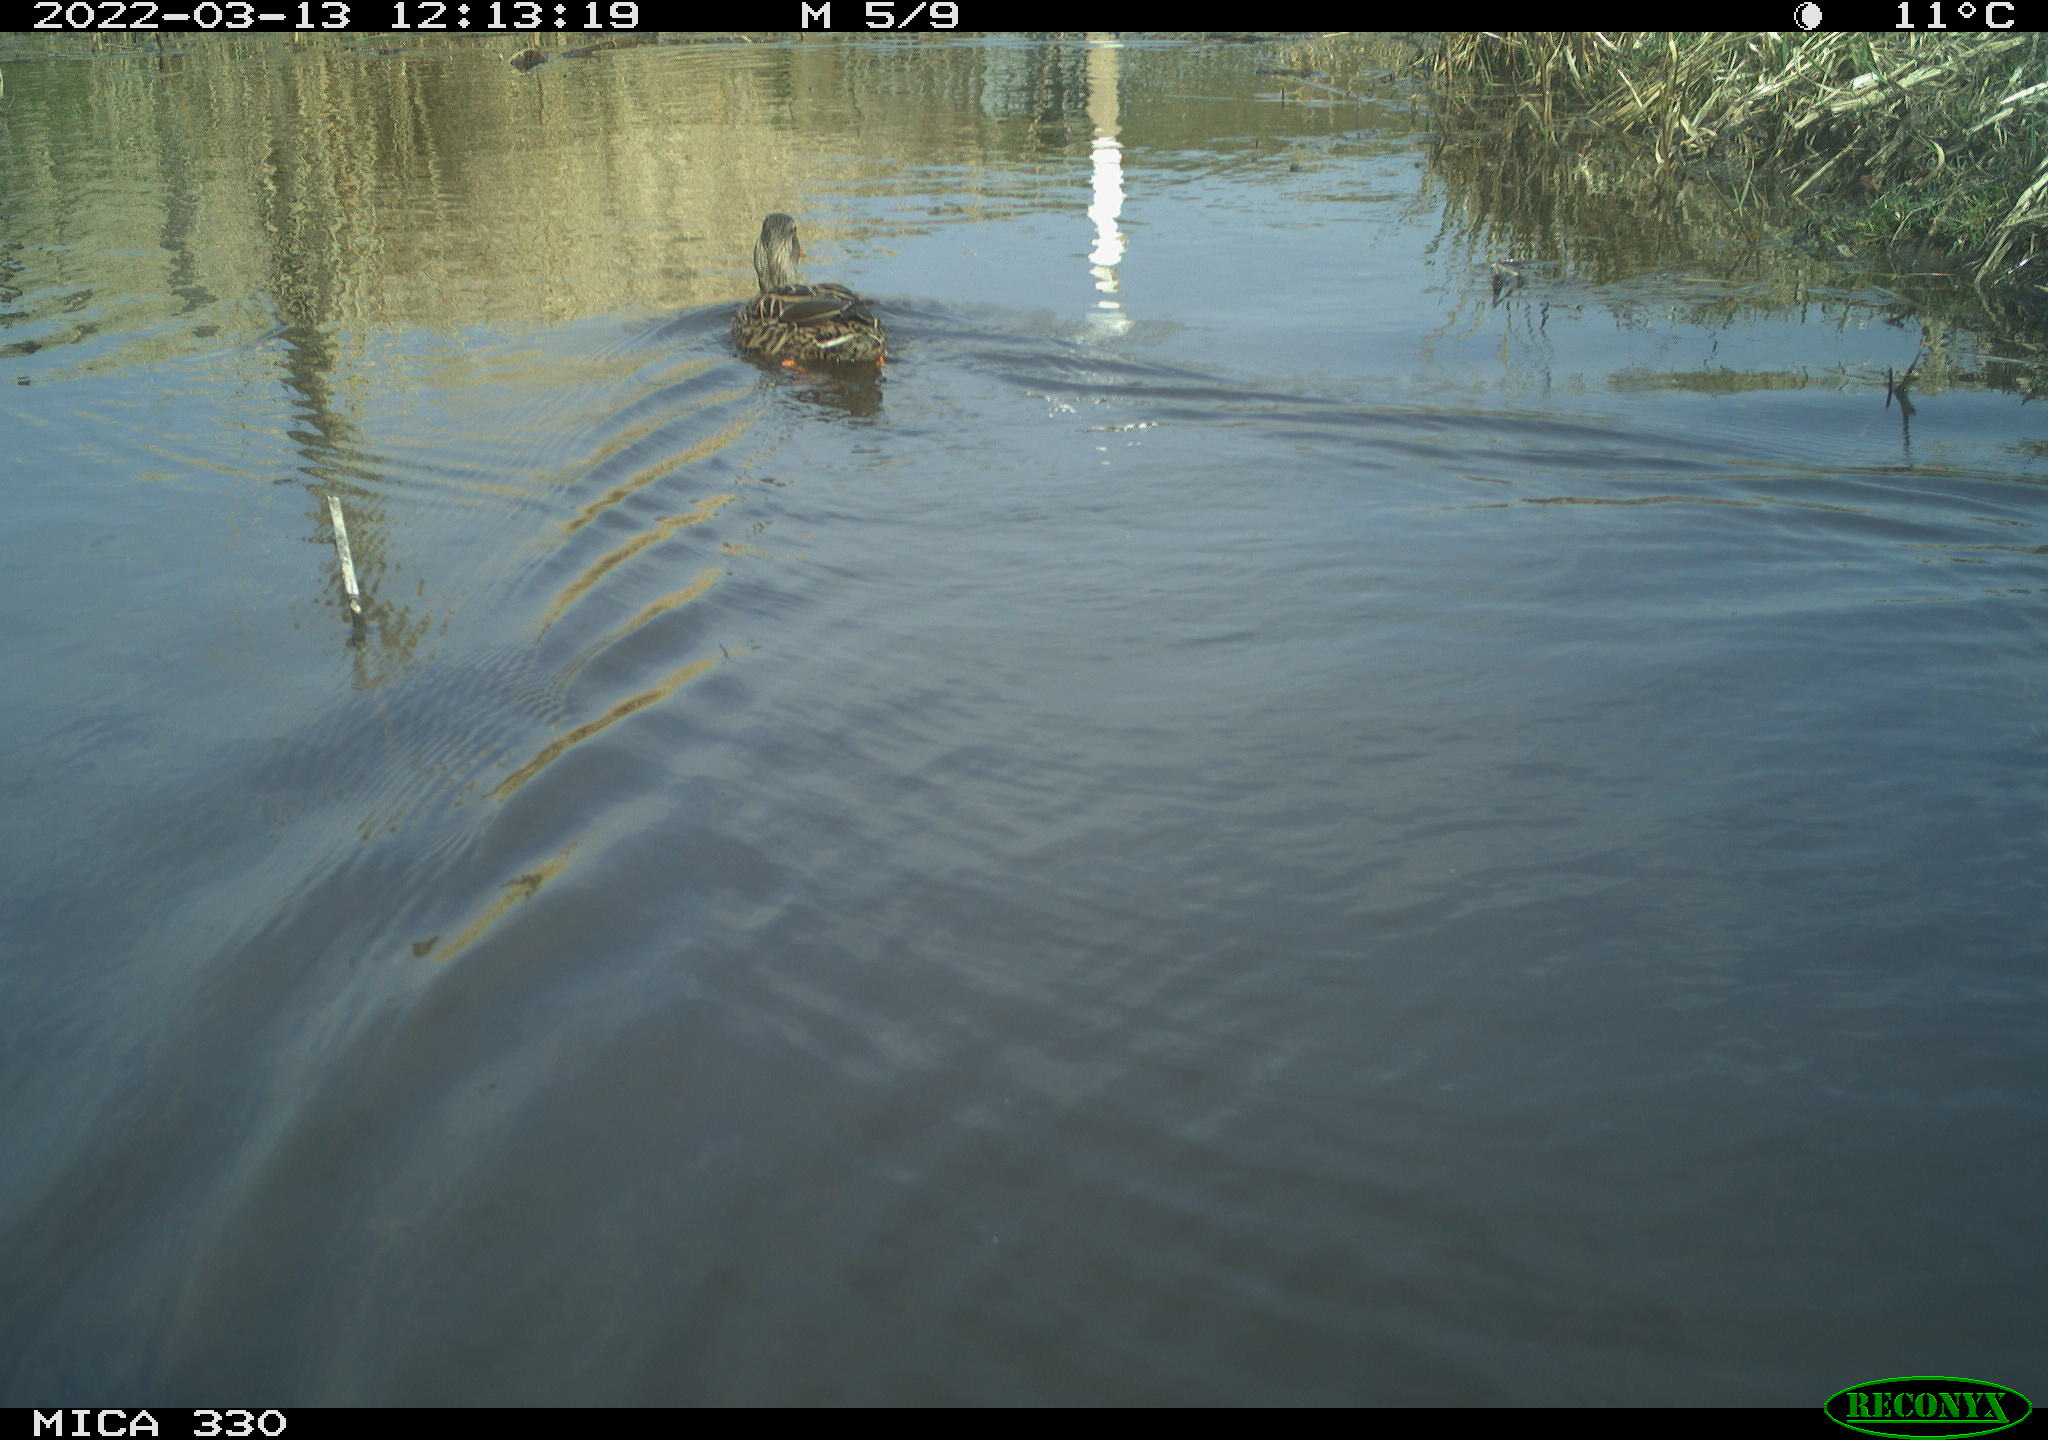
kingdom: Animalia
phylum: Chordata
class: Aves
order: Anseriformes
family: Anatidae
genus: Anas
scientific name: Anas platyrhynchos
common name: Mallard
